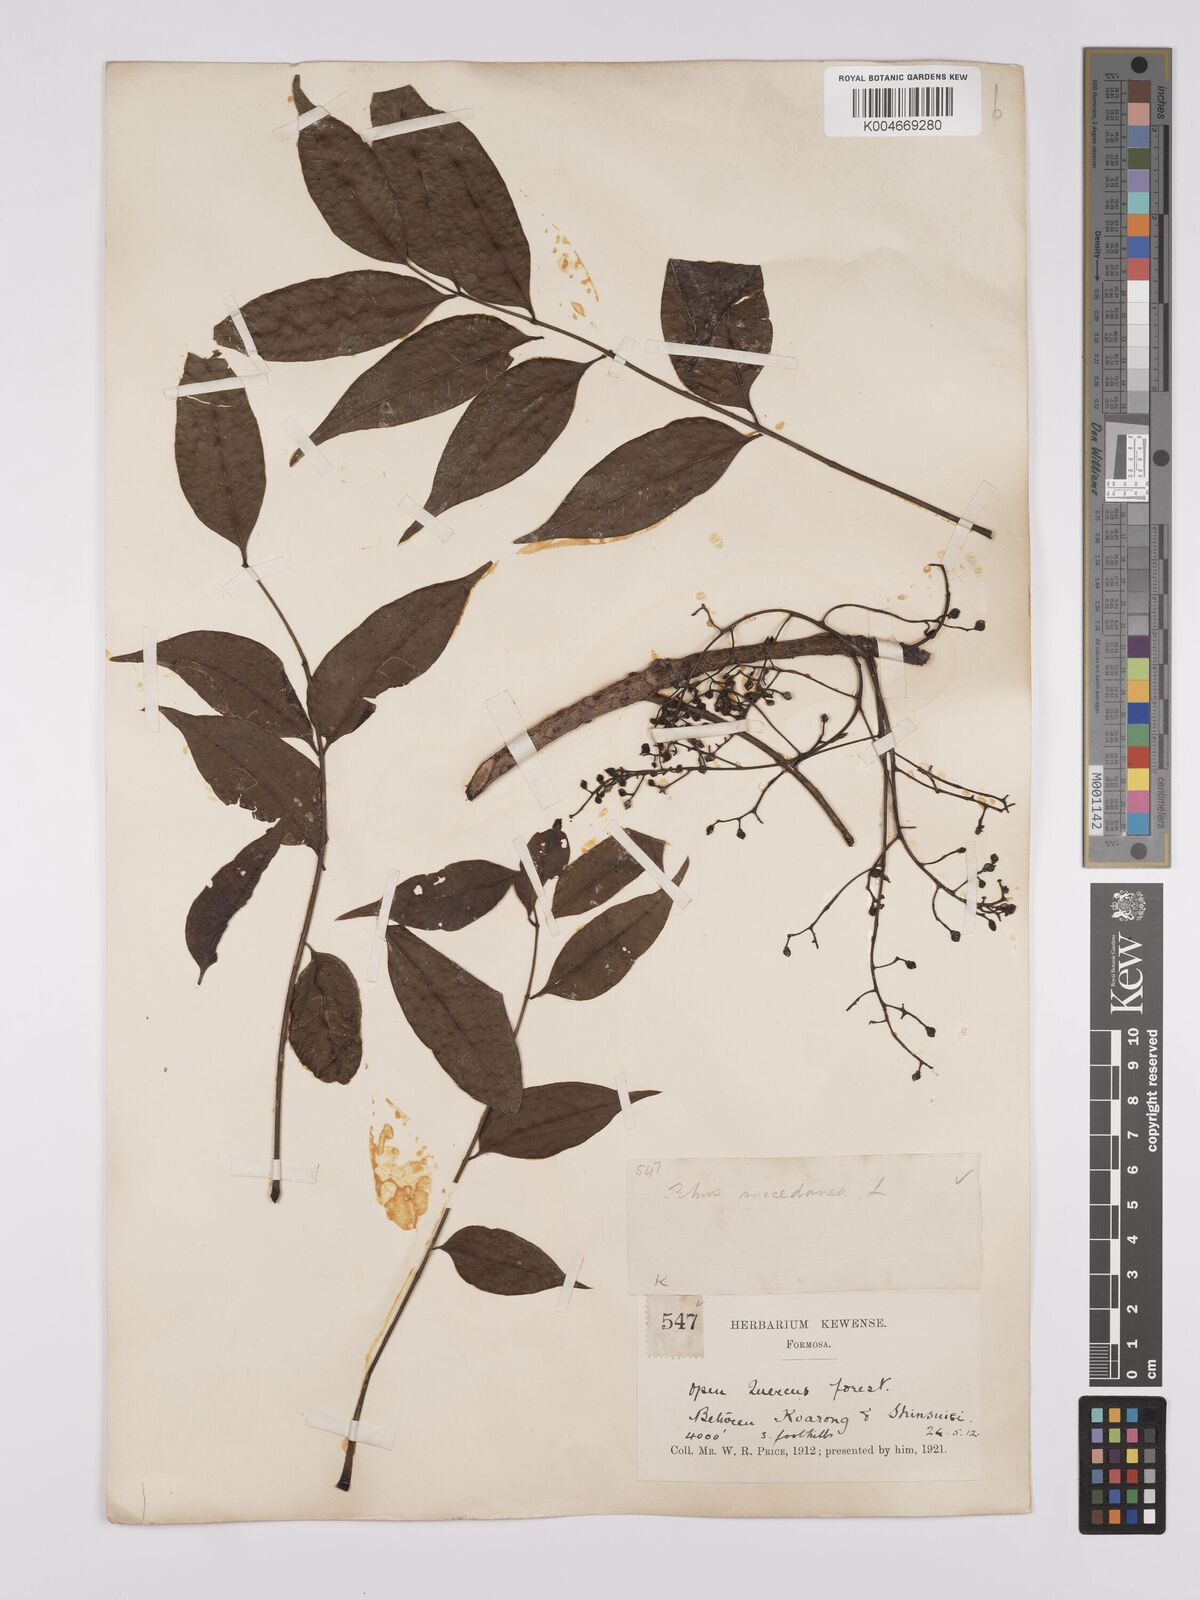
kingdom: Plantae
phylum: Tracheophyta
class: Magnoliopsida
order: Sapindales
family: Anacardiaceae
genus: Toxicodendron
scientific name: Toxicodendron succedaneum
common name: Wax tree
